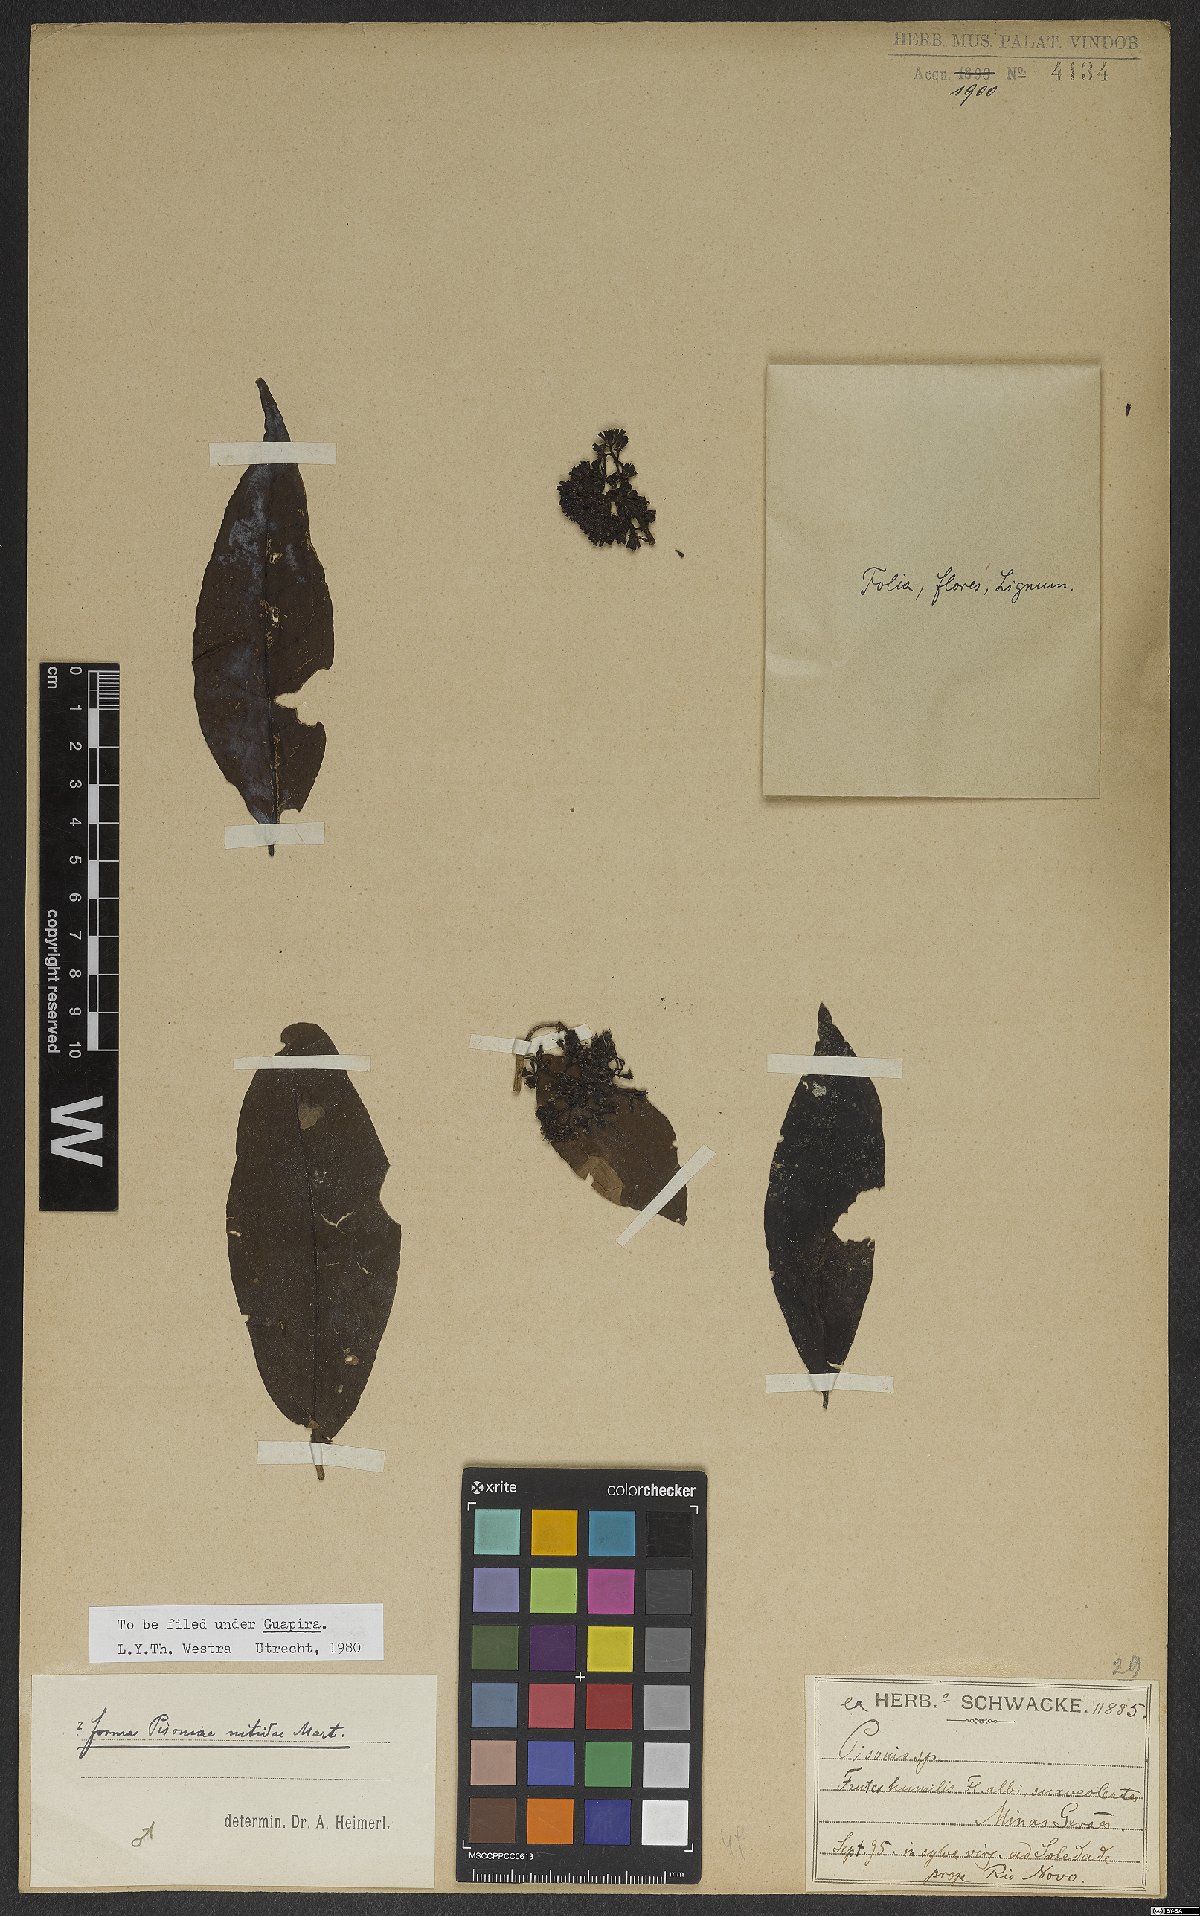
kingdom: Plantae
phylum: Tracheophyta
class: Magnoliopsida
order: Caryophyllales
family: Nyctaginaceae
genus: Guapira
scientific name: Guapira nitida
